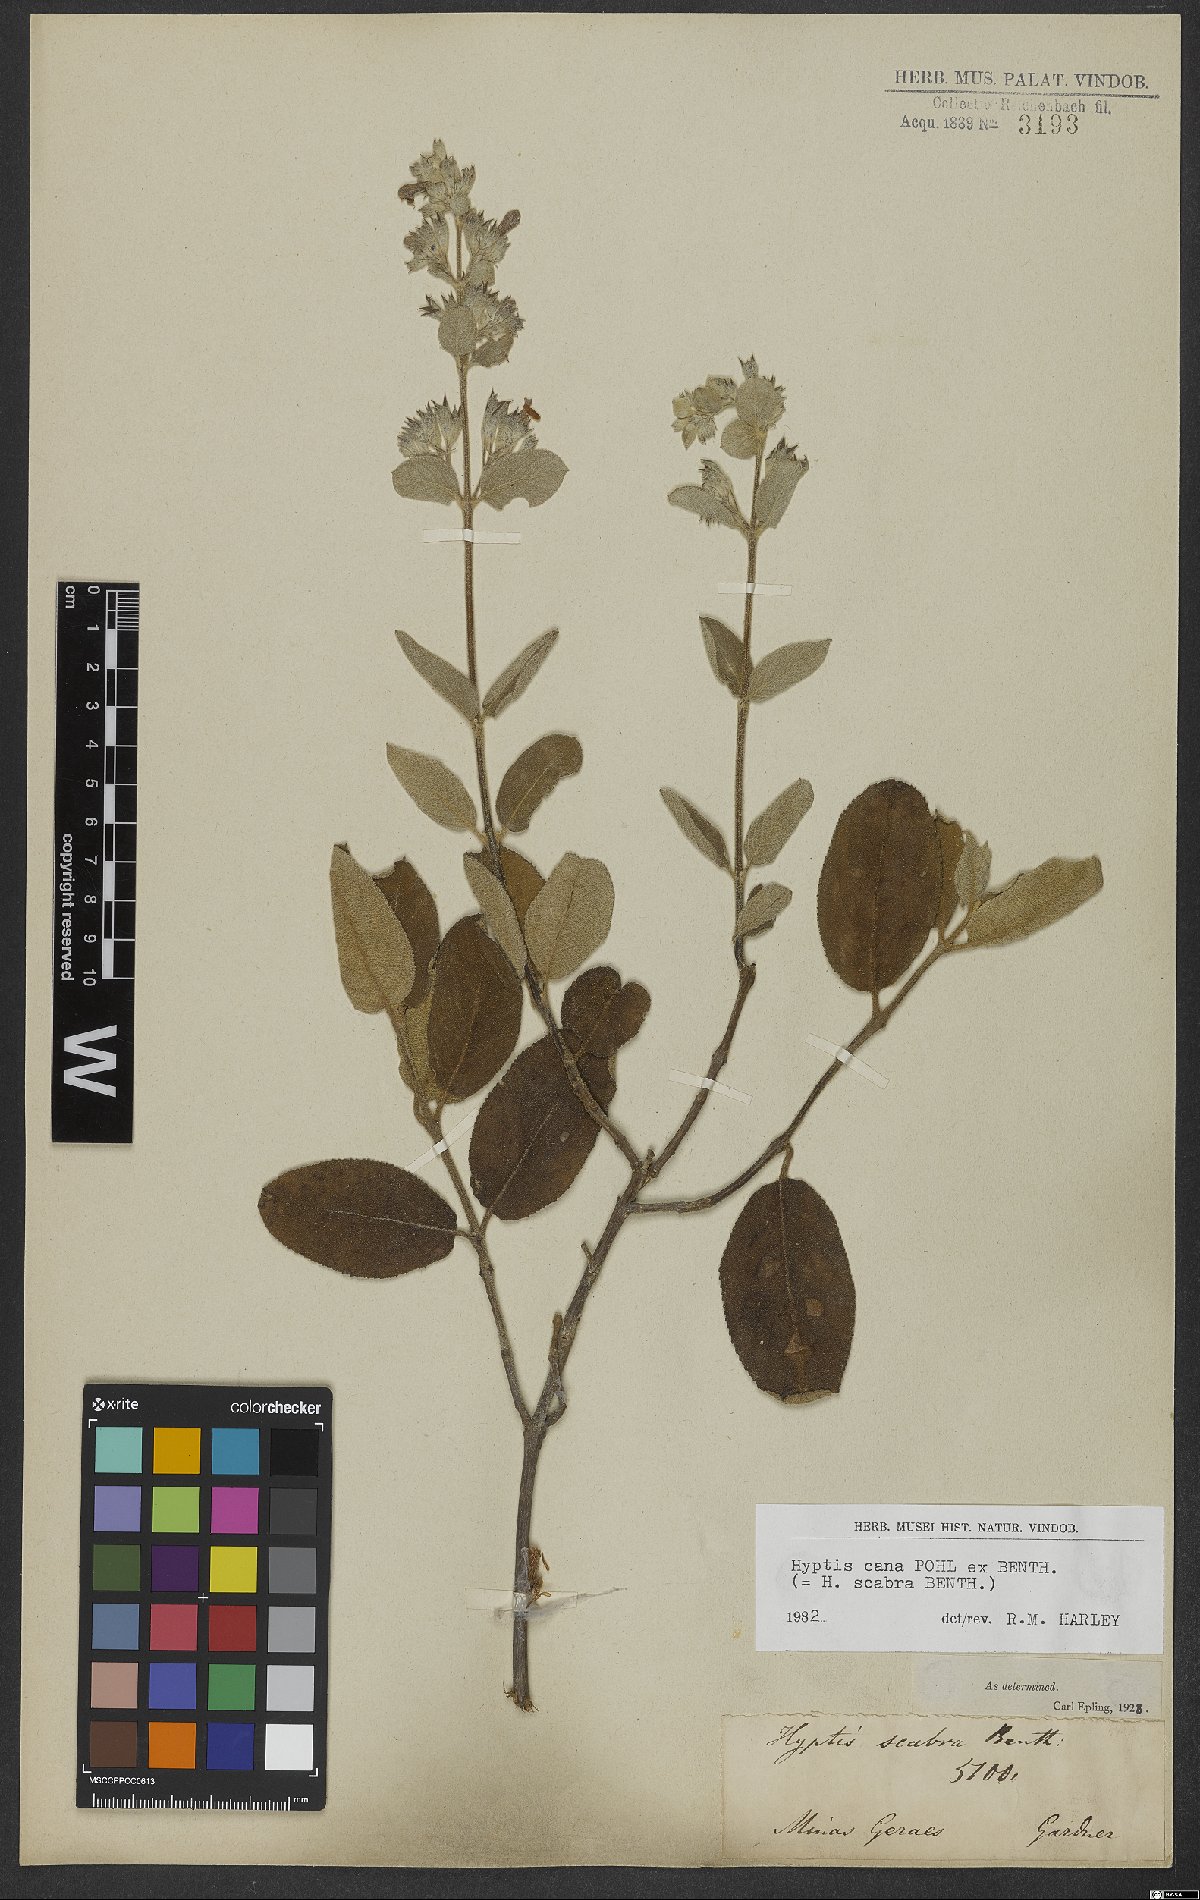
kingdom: Plantae
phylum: Tracheophyta
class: Magnoliopsida
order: Lamiales
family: Lamiaceae
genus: Hyptidendron
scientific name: Hyptidendron canum
